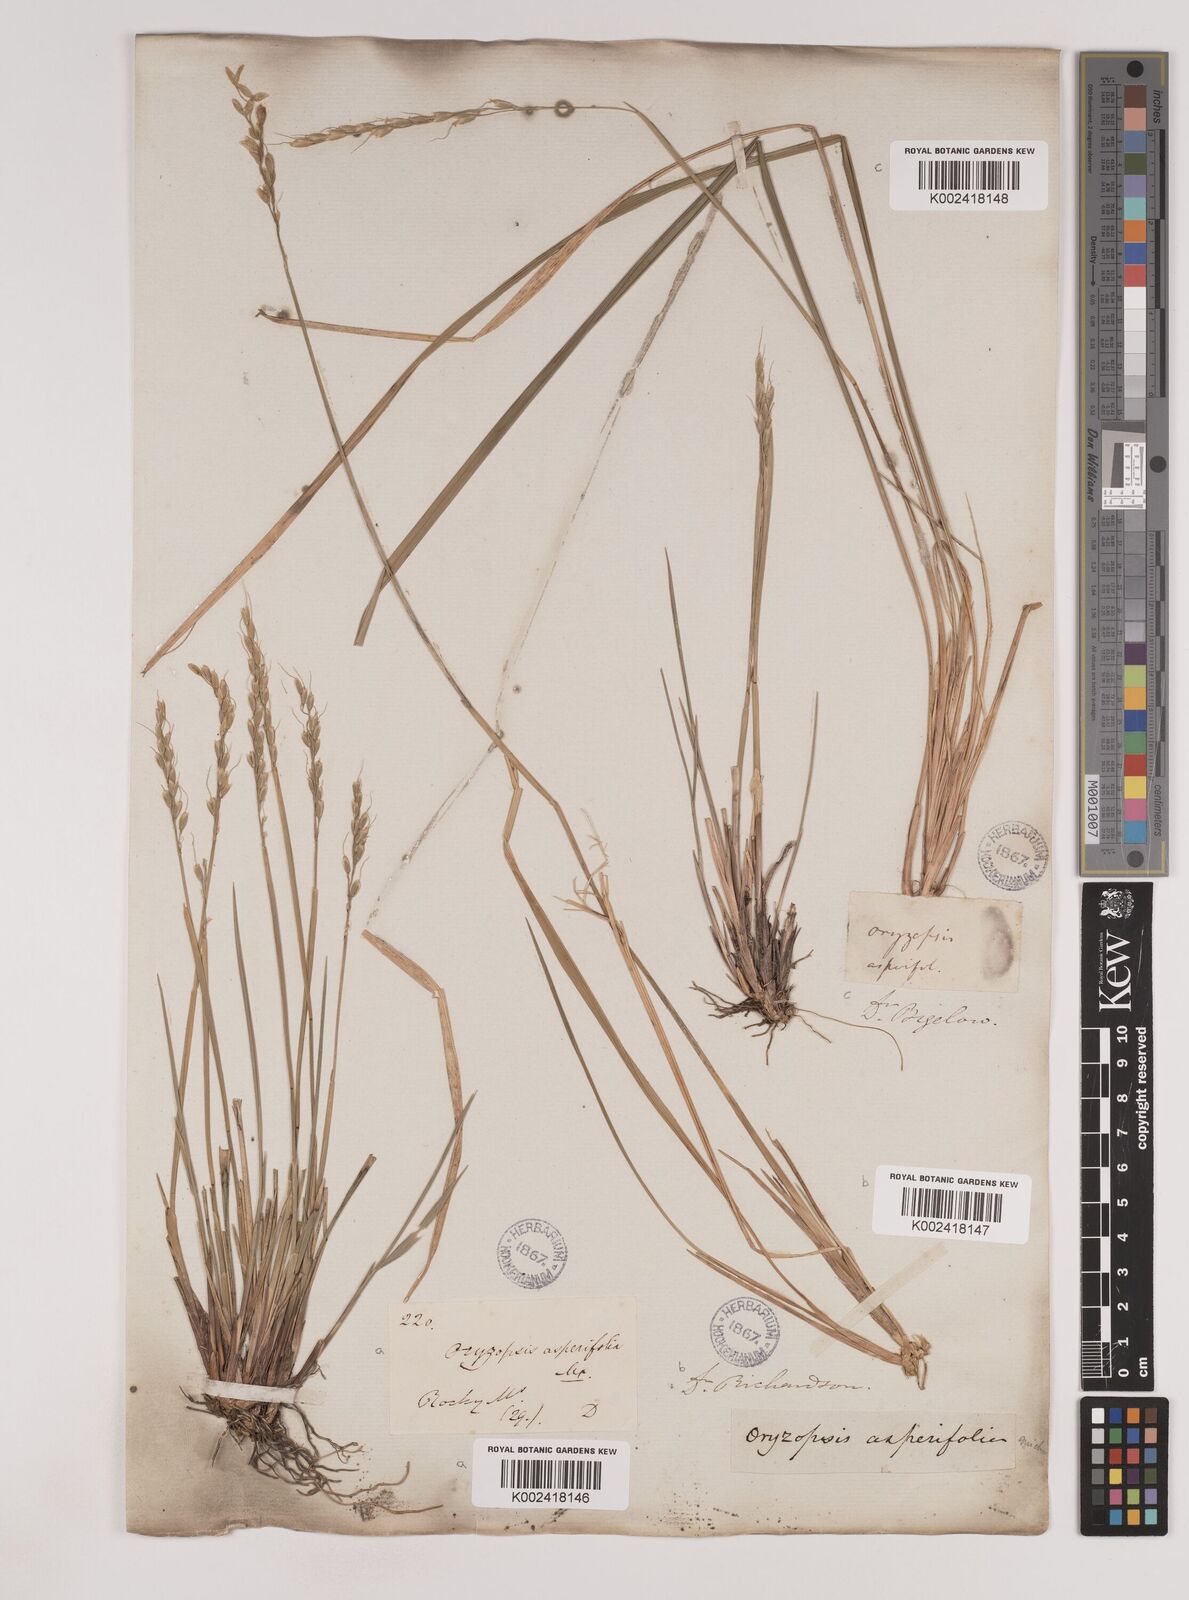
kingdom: Plantae
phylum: Tracheophyta
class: Liliopsida
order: Poales
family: Poaceae
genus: Oryzopsis
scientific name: Oryzopsis asperifolia
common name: Rough-leaved mountain rice
